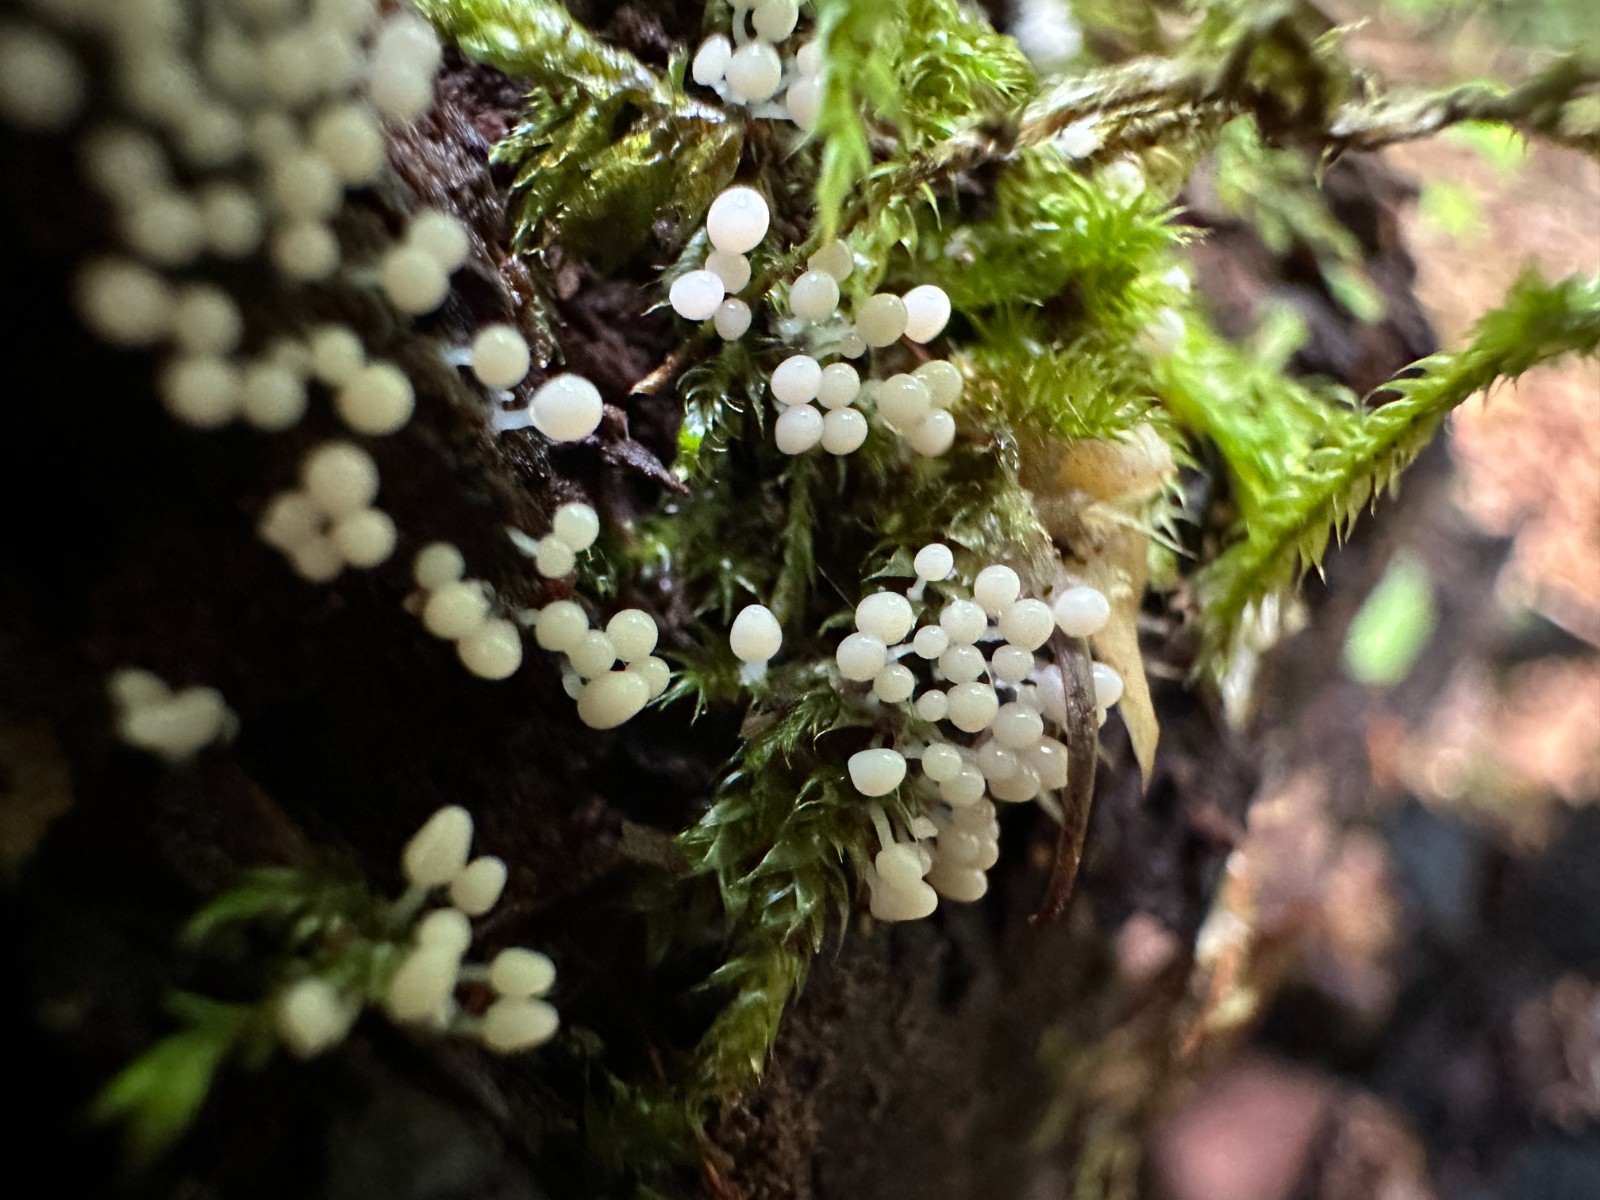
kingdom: Protozoa
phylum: Mycetozoa
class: Myxomycetes
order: Trichiales
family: Arcyriaceae
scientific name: Arcyriaceae
